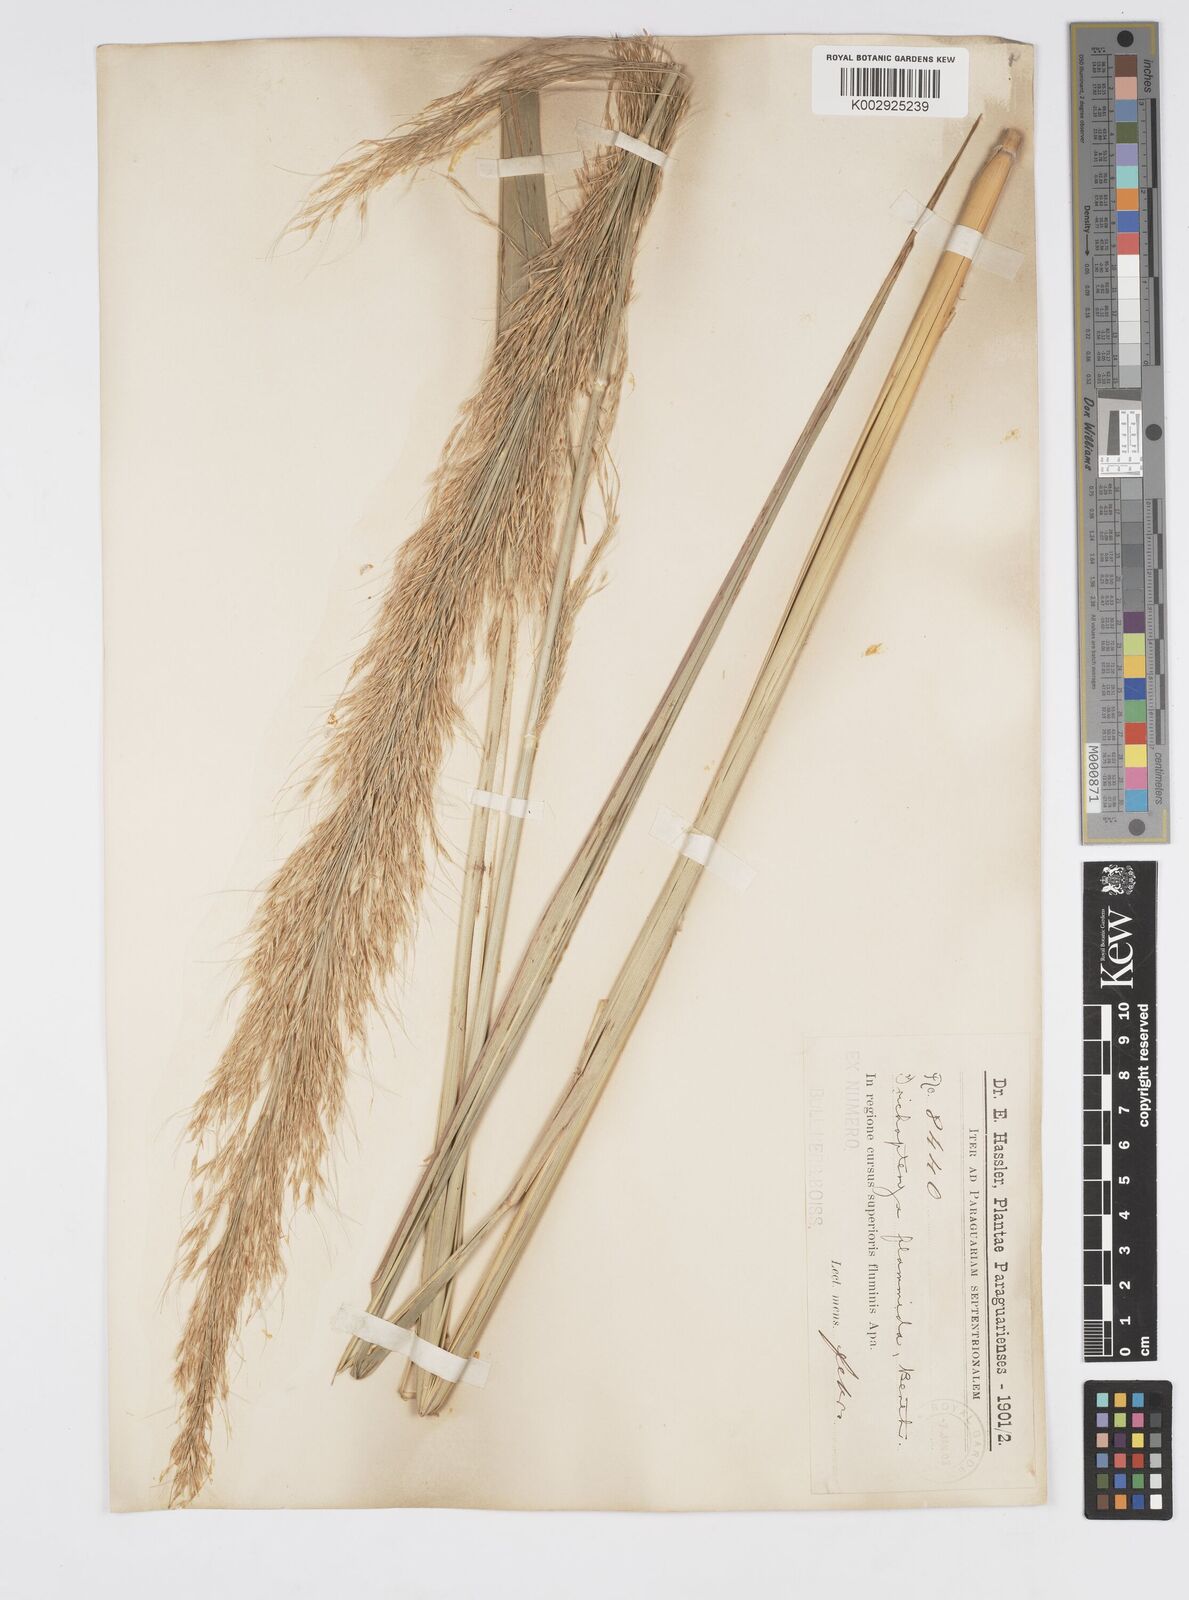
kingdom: Plantae
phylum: Tracheophyta
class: Liliopsida
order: Poales
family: Poaceae
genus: Loudetia
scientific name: Loudetia flammida
